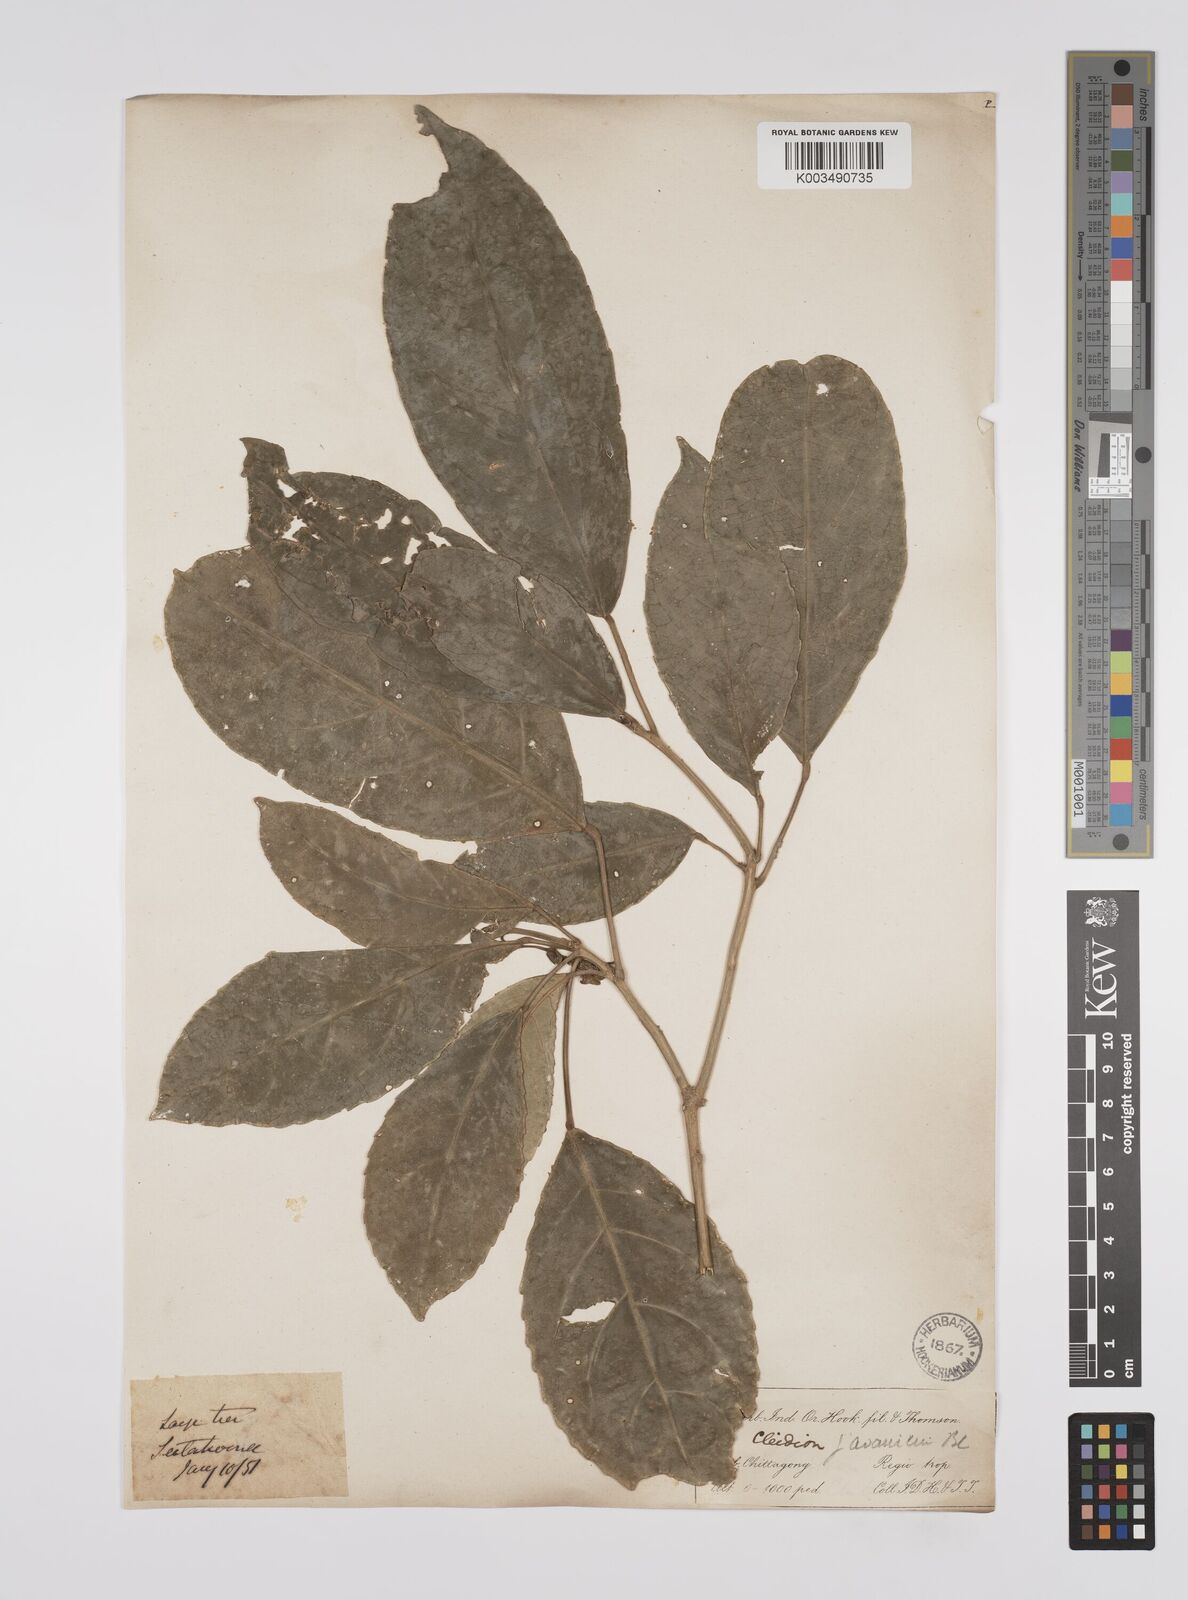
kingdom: Plantae
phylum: Tracheophyta
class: Magnoliopsida
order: Malpighiales
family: Euphorbiaceae
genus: Acalypha
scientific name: Acalypha spiciflora
